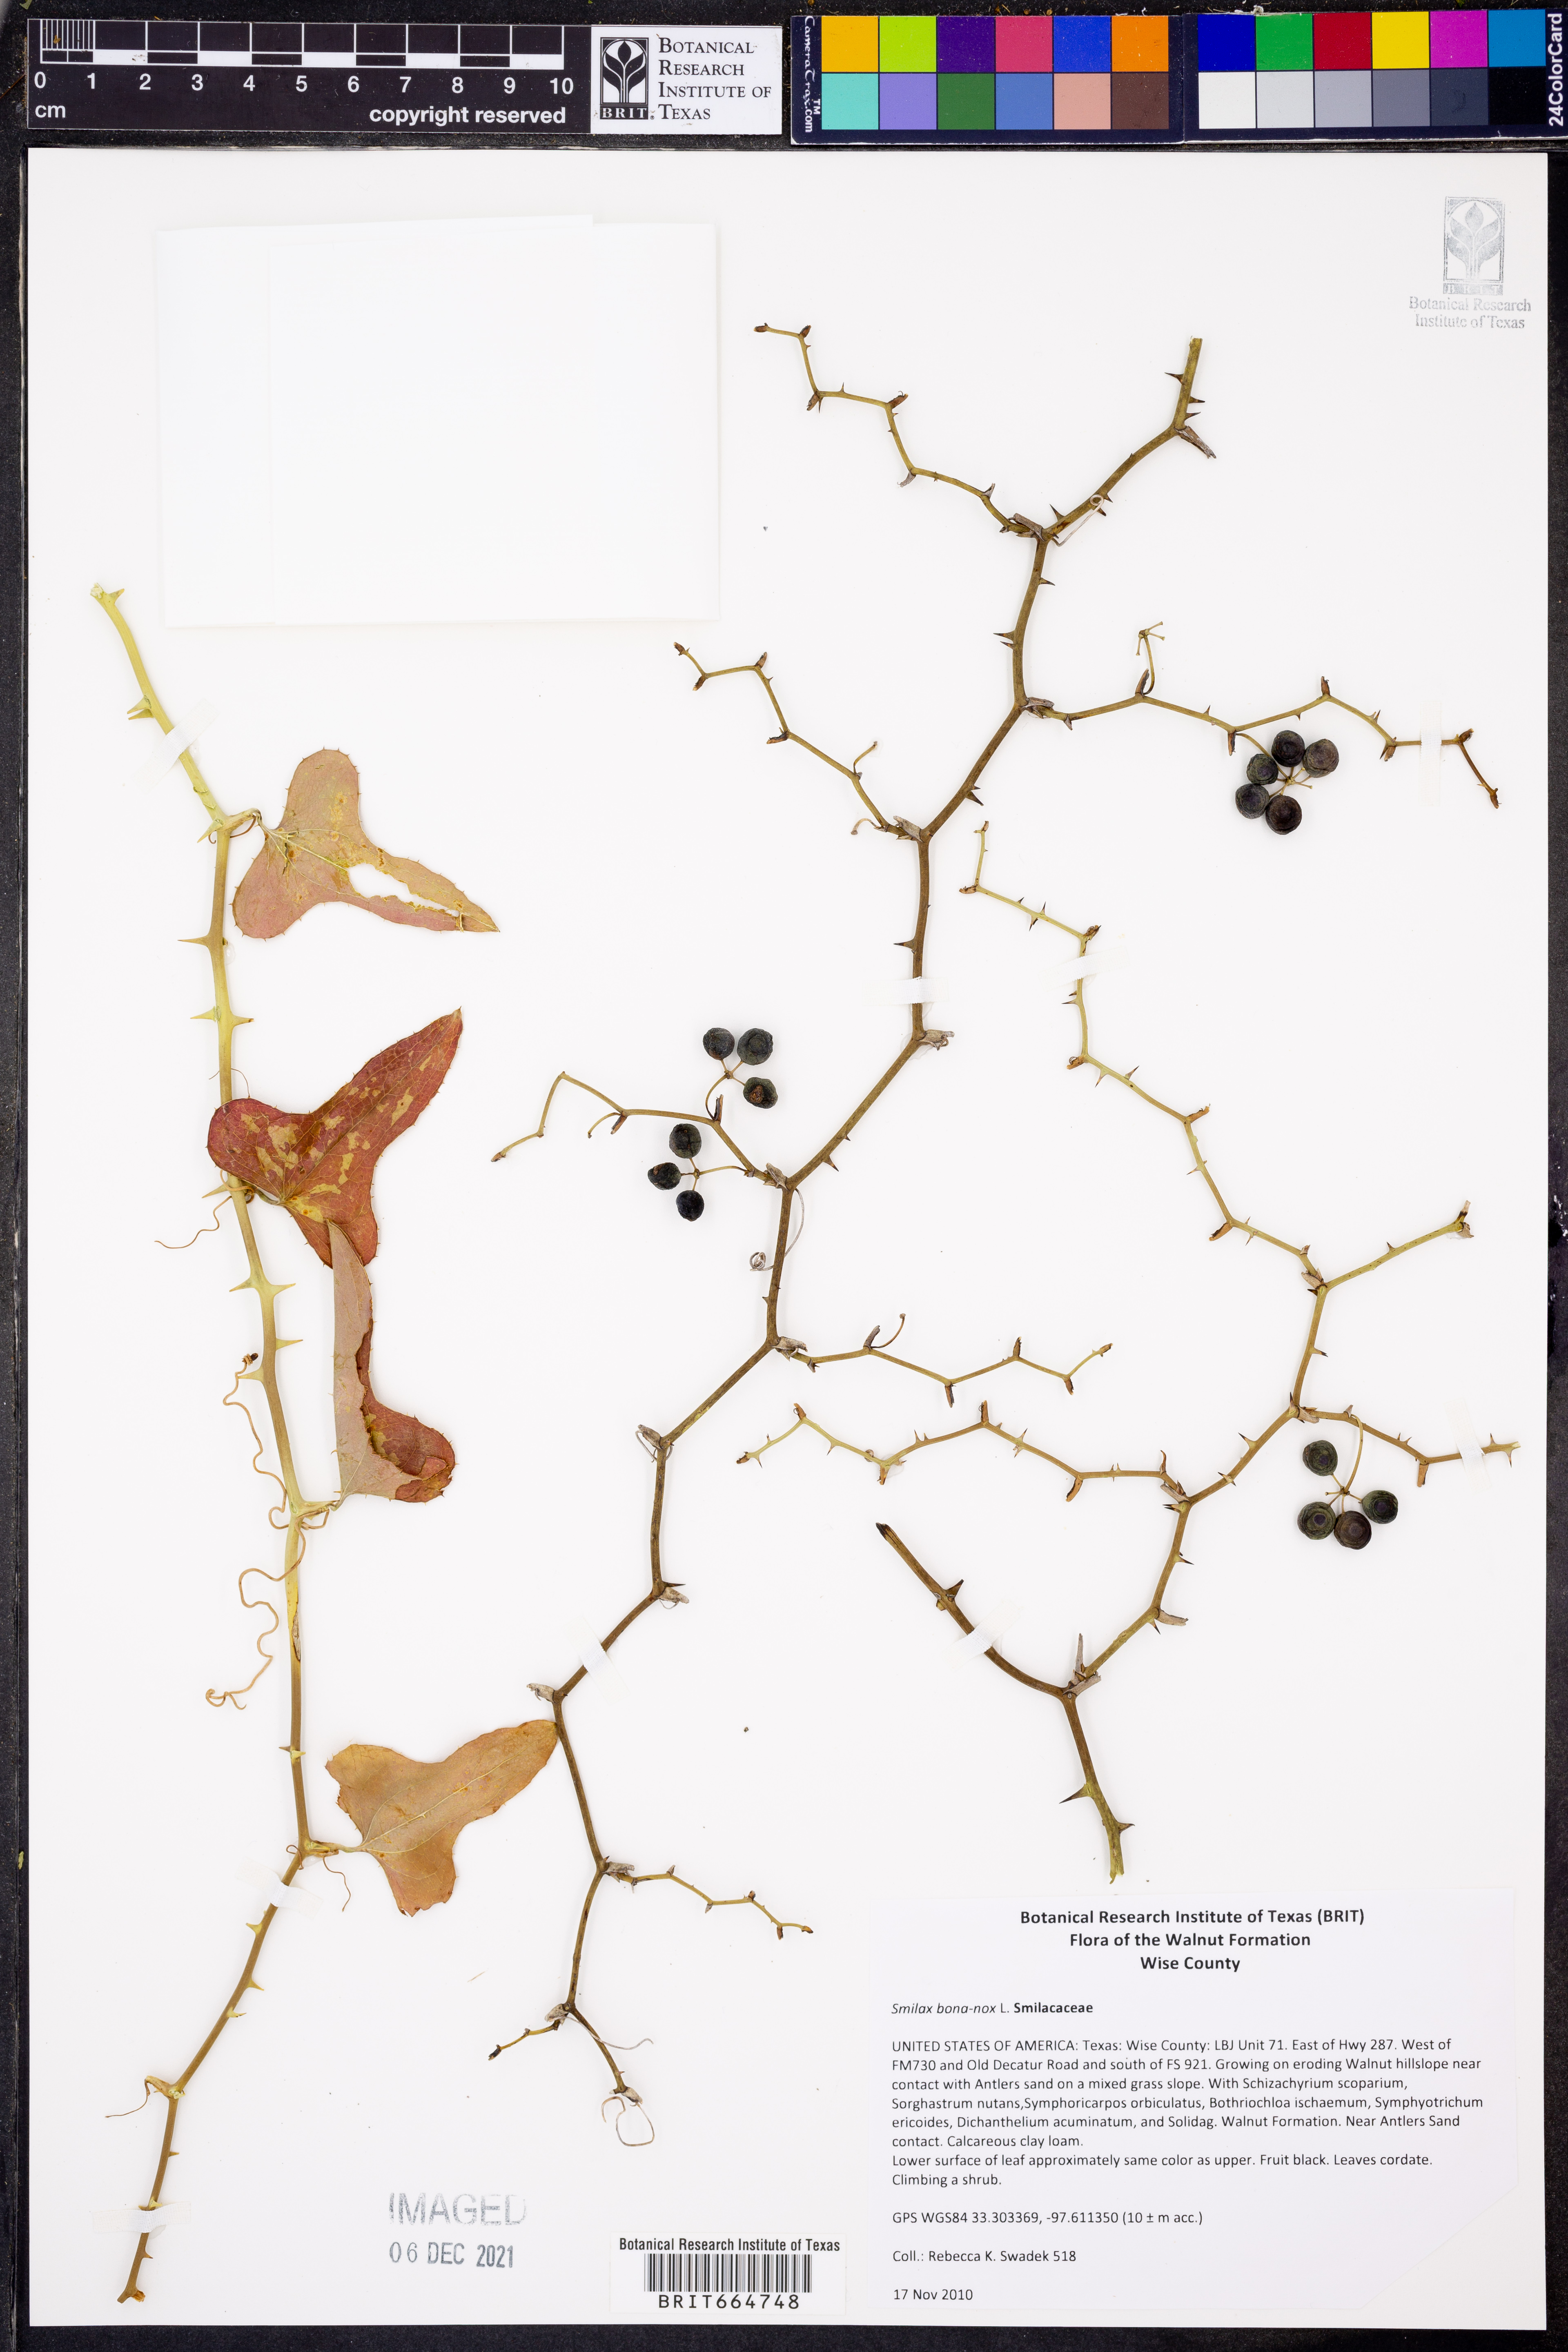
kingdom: Plantae
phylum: Tracheophyta
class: Liliopsida
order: Liliales
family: Smilacaceae
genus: Smilax
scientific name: Smilax bona-nox
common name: Catbrier
